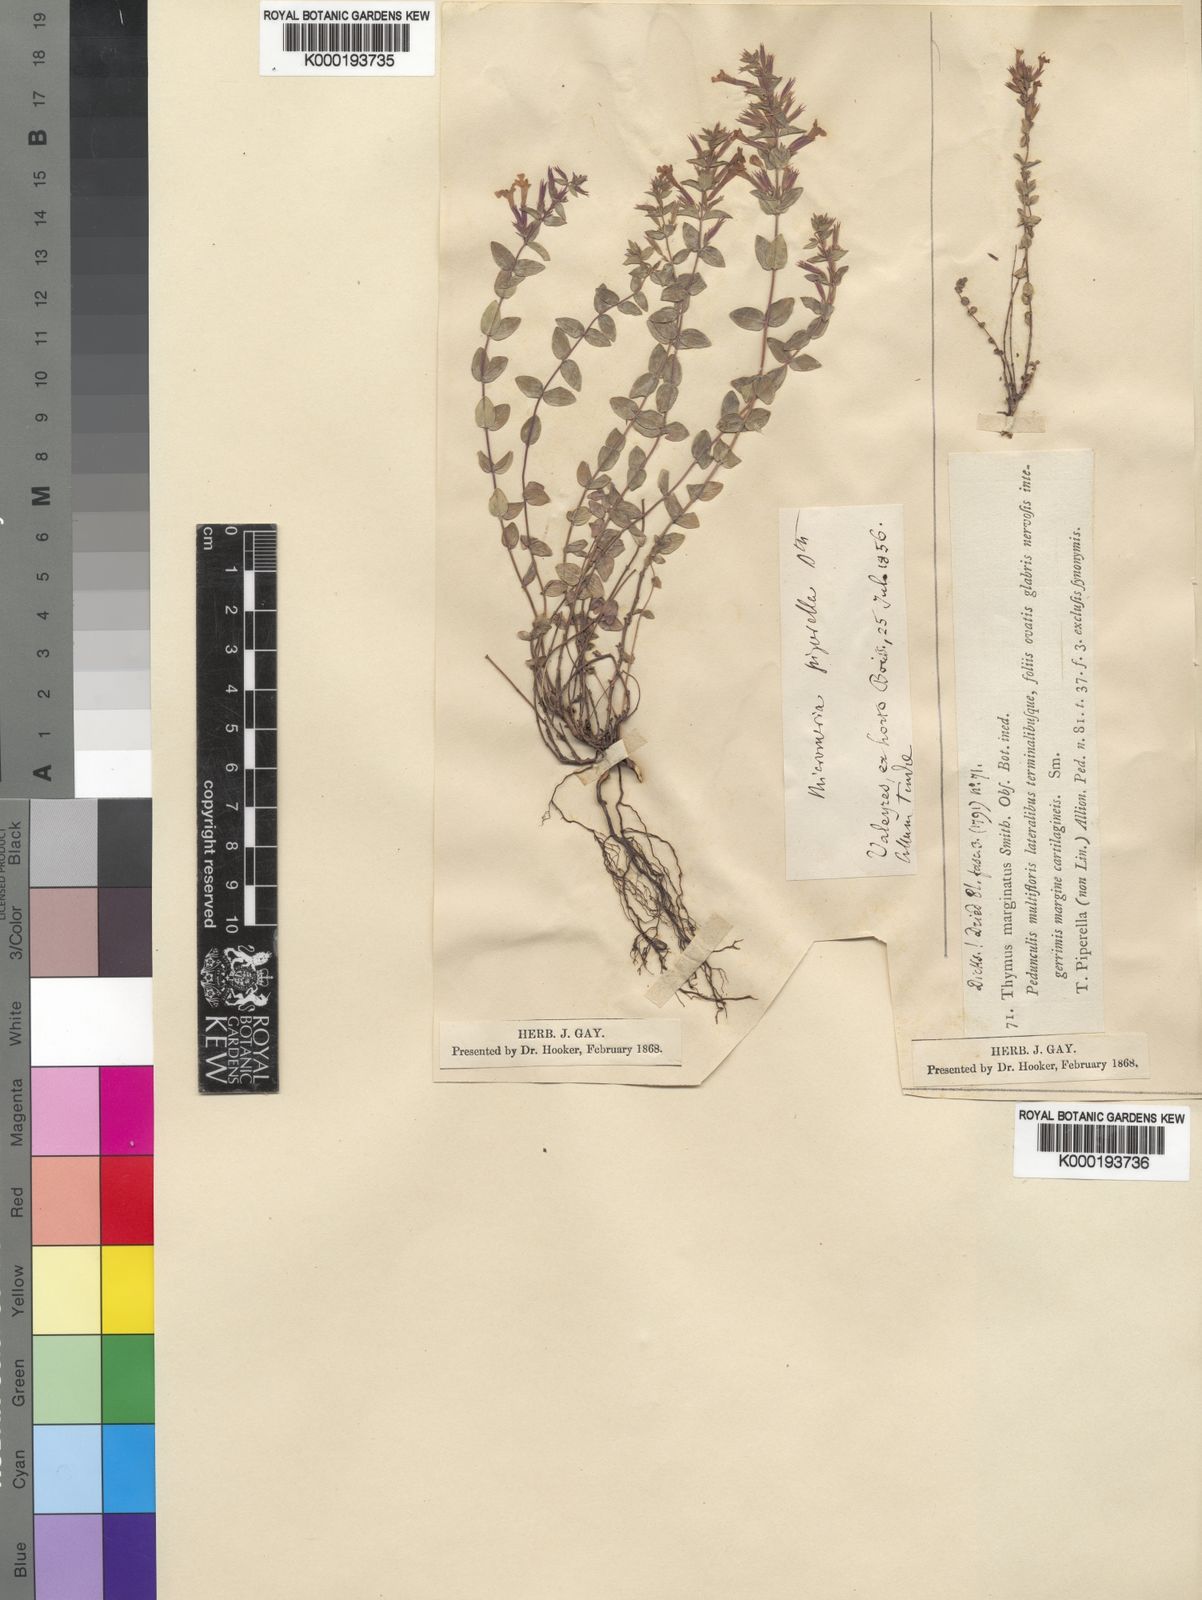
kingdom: Plantae
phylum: Tracheophyta
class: Magnoliopsida
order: Lamiales
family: Lamiaceae
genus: Micromeria
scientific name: Micromeria marginata
